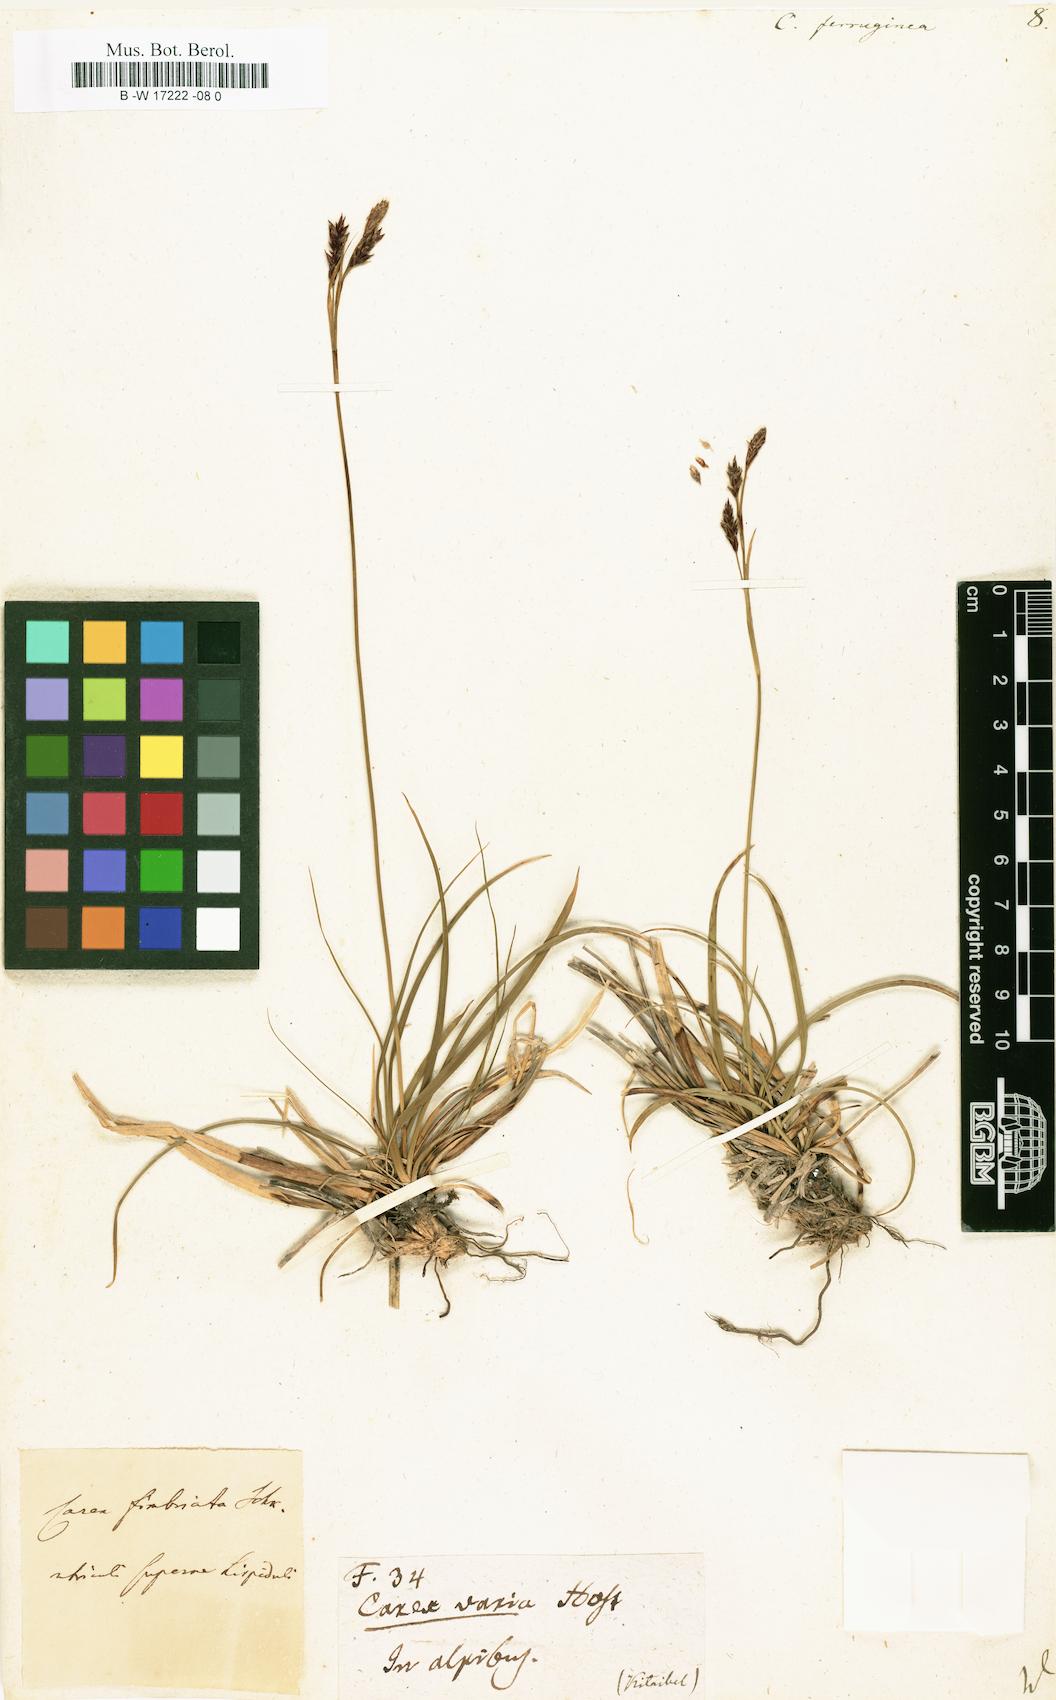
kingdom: Plantae
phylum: Tracheophyta
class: Liliopsida
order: Poales
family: Cyperaceae
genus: Carex
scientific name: Carex ferruginea
